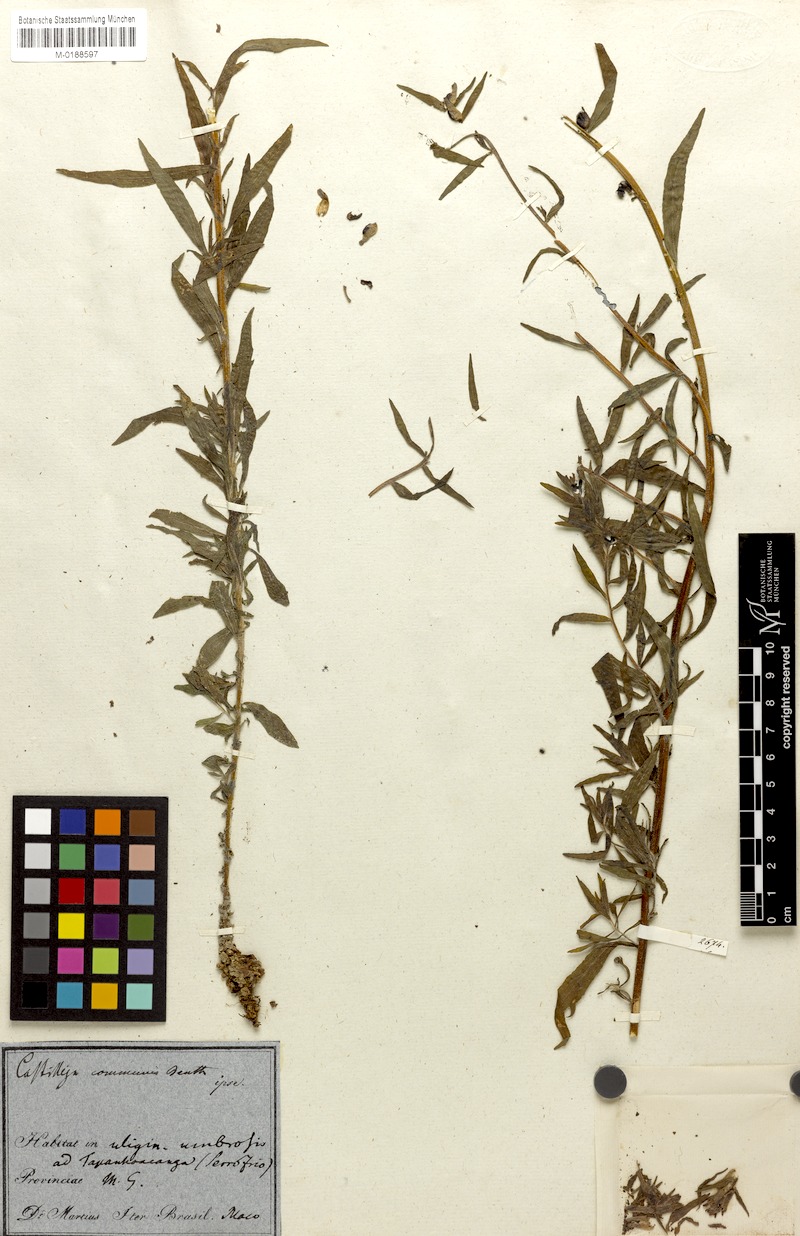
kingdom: Plantae
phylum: Tracheophyta
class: Magnoliopsida
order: Lamiales
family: Orobanchaceae
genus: Castilleja
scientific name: Castilleja scorzonerifolia
